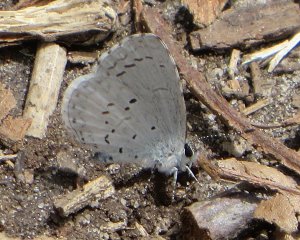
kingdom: Animalia
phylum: Arthropoda
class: Insecta
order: Lepidoptera
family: Lycaenidae
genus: Celastrina
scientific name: Celastrina ladon
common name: Spring Azure
